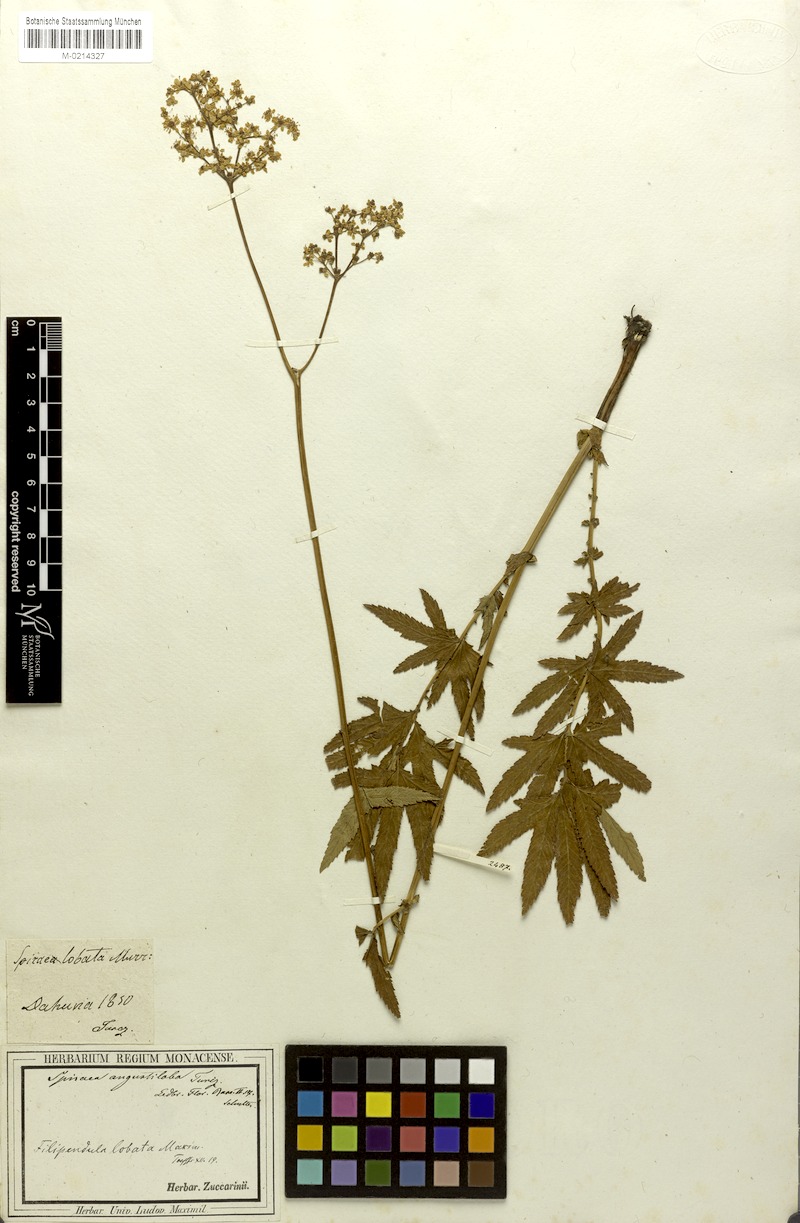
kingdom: Plantae
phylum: Tracheophyta
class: Magnoliopsida
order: Rosales
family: Rosaceae
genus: Filipendula
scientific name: Filipendula angustiloba
